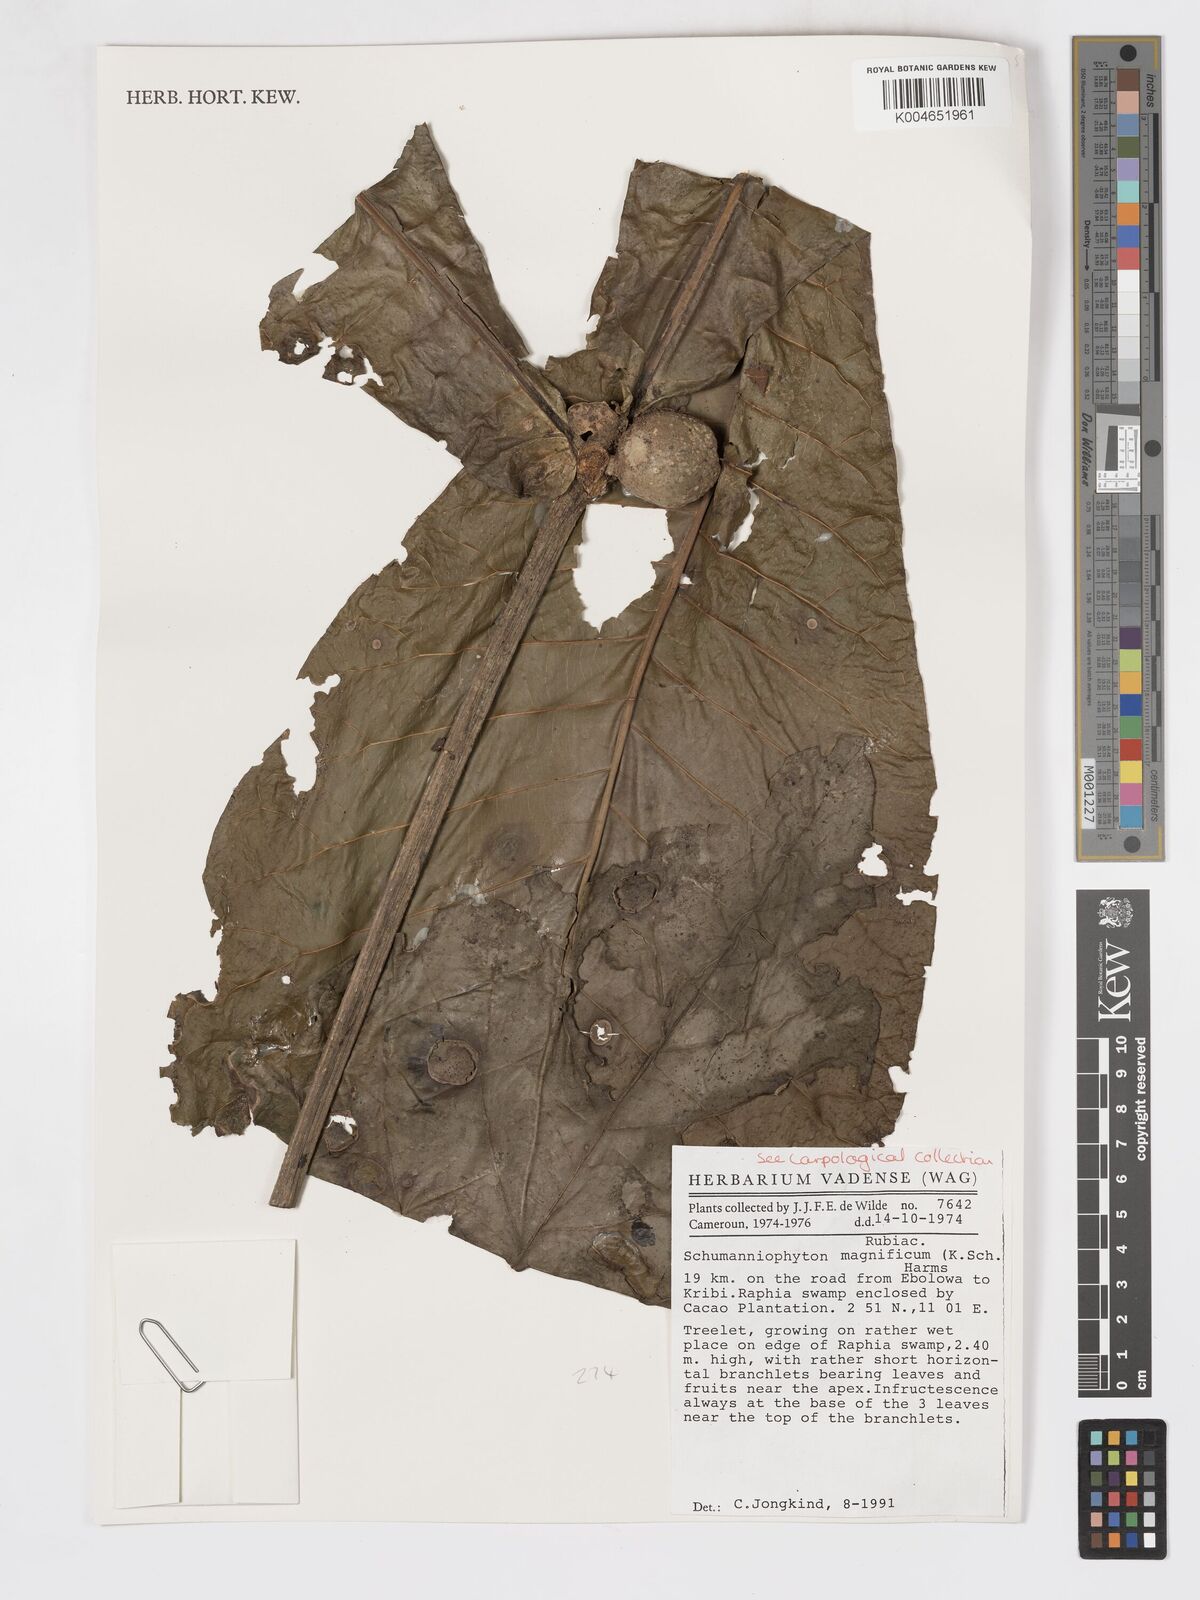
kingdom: Plantae
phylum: Tracheophyta
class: Magnoliopsida
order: Gentianales
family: Rubiaceae
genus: Schumanniophyton
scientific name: Schumanniophyton magnificum
